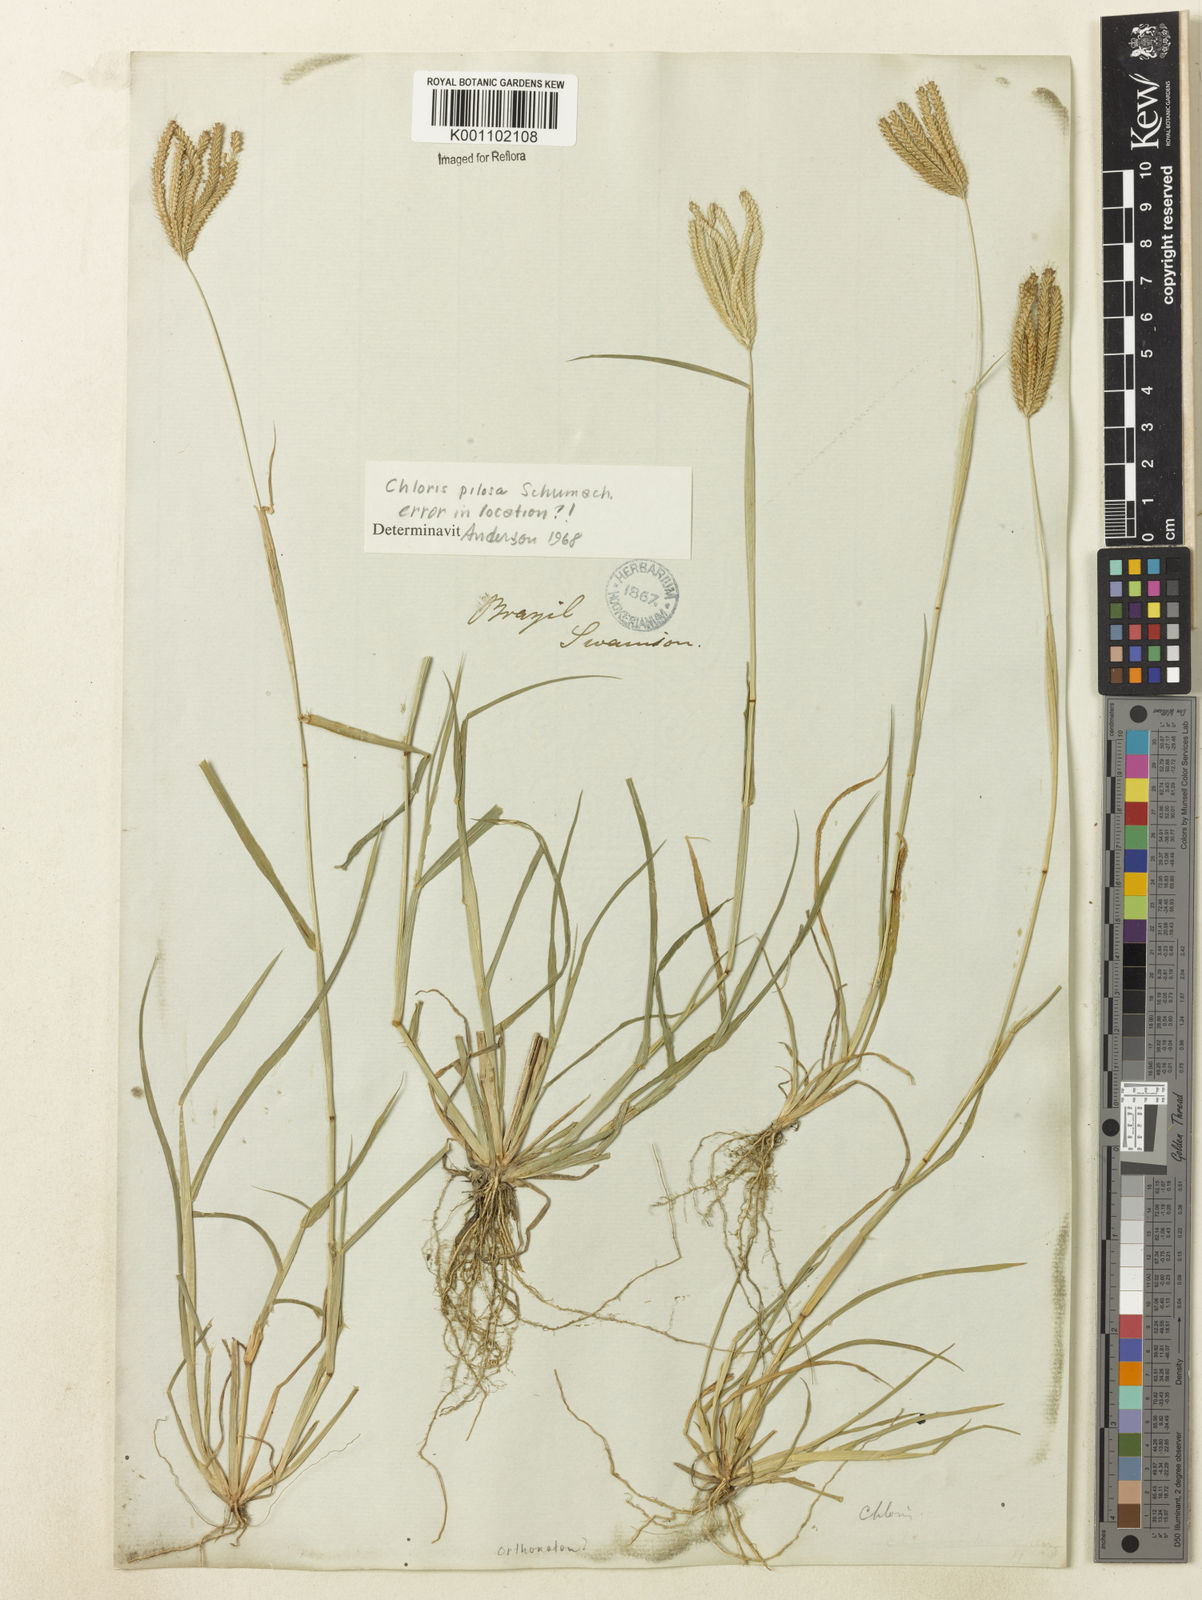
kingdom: Plantae
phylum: Tracheophyta
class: Liliopsida
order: Poales
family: Poaceae
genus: Chloris
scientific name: Chloris pilosa
